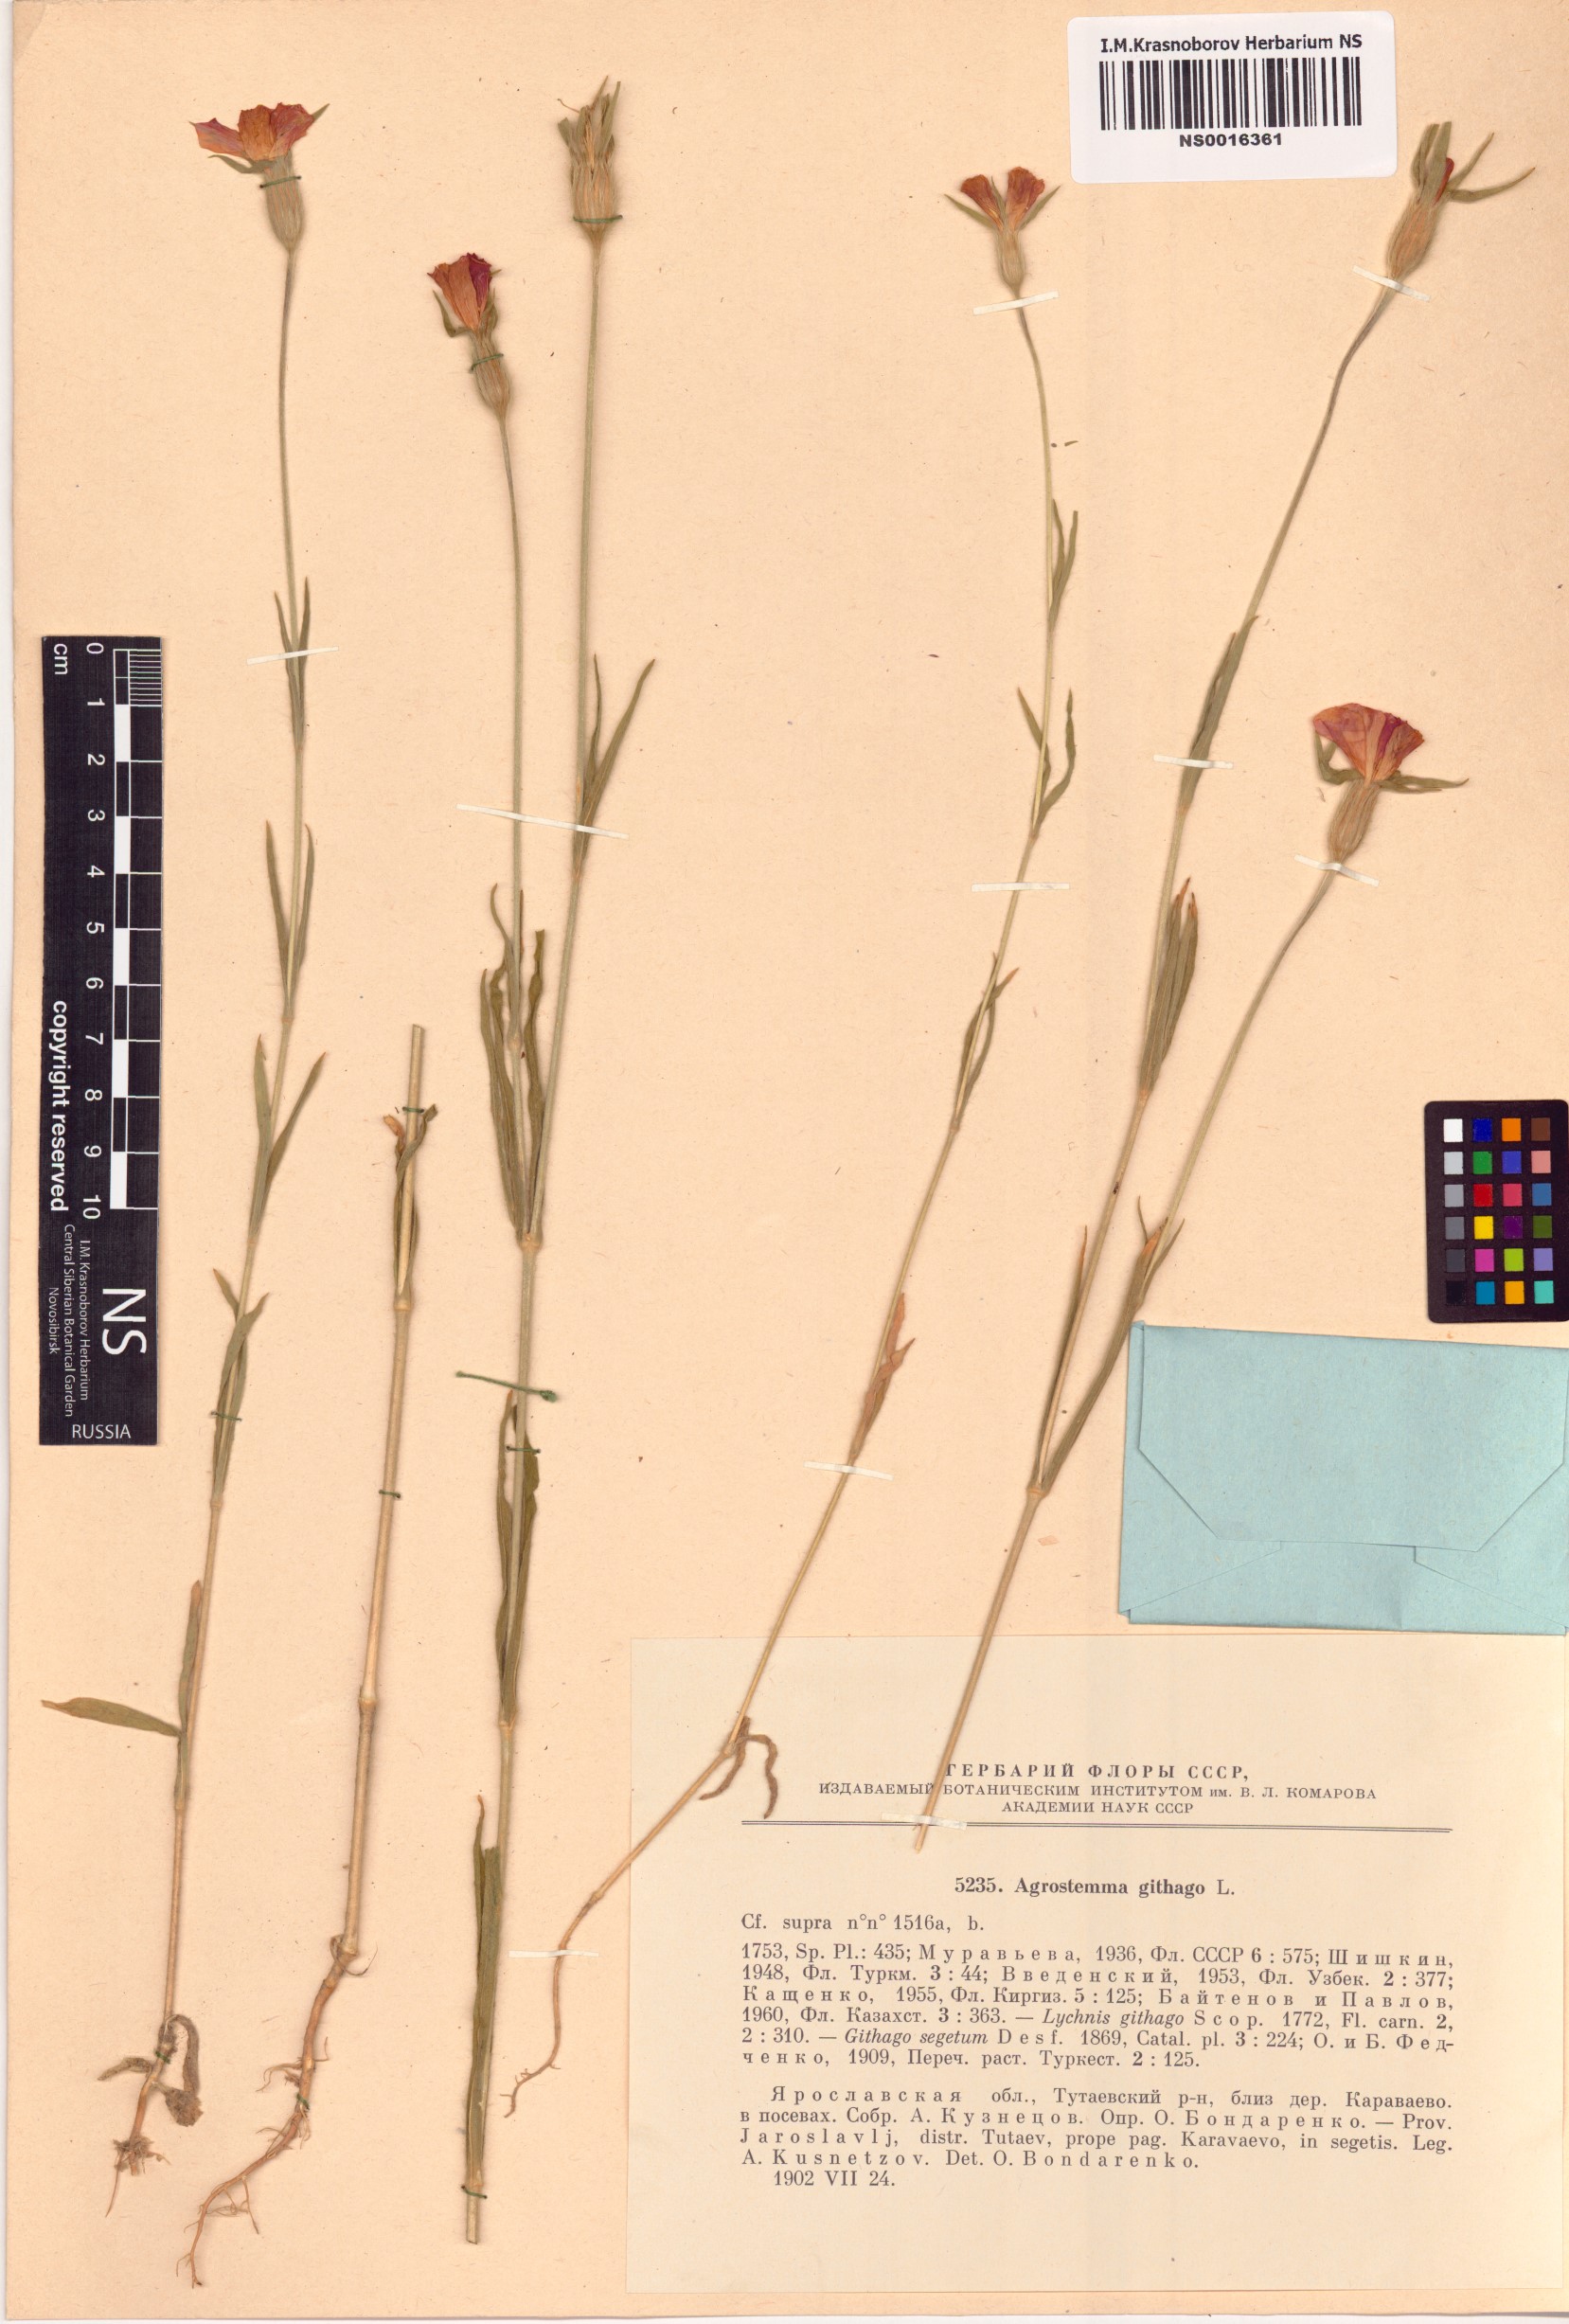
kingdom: Plantae
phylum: Tracheophyta
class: Magnoliopsida
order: Caryophyllales
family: Caryophyllaceae
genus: Agrostemma
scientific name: Agrostemma githago
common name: Common corncockle
